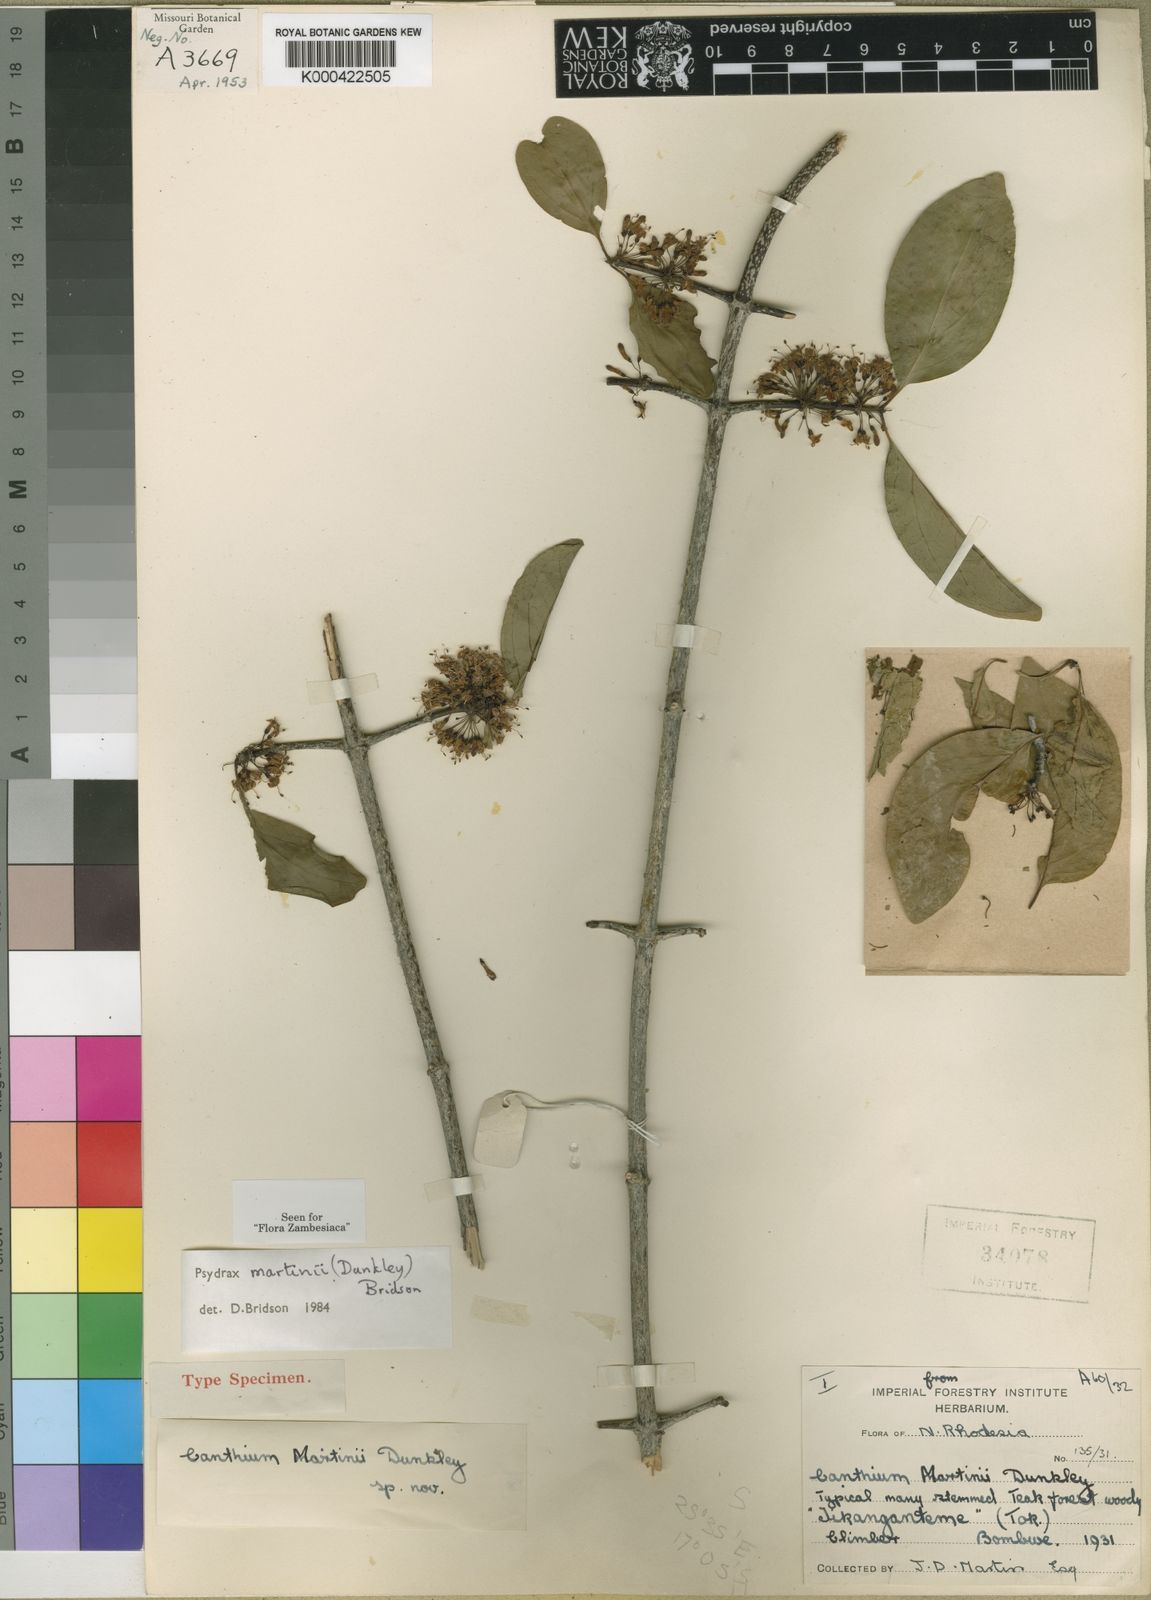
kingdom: Plantae
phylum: Tracheophyta
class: Magnoliopsida
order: Gentianales
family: Rubiaceae
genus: Psydrax
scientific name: Psydrax martini
